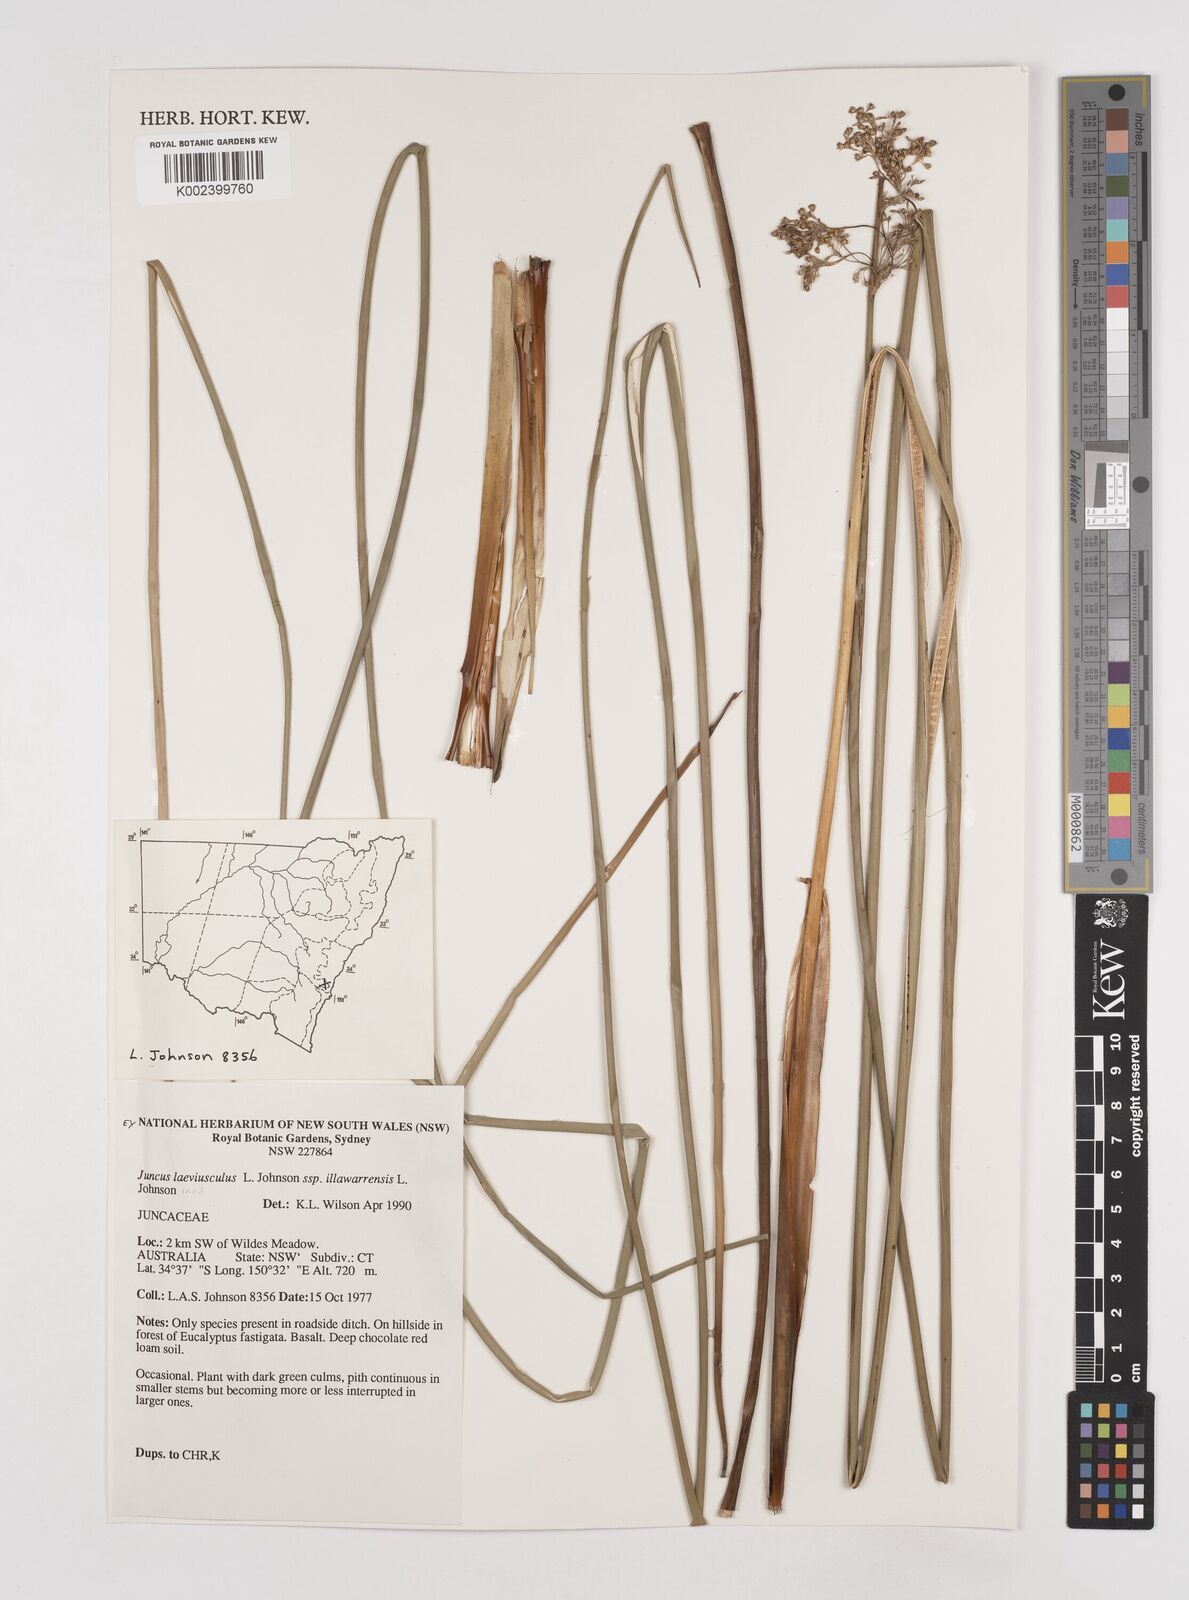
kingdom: Plantae
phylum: Tracheophyta
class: Liliopsida
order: Poales
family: Juncaceae
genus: Juncus
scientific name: Juncus laeviusculus
